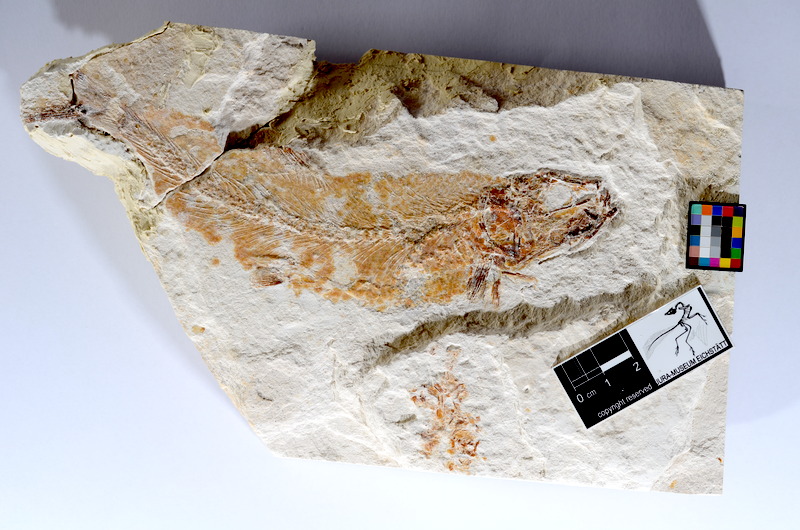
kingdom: Animalia
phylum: Chordata
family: Ascalaboidae
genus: Tharsis
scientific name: Tharsis dubius
